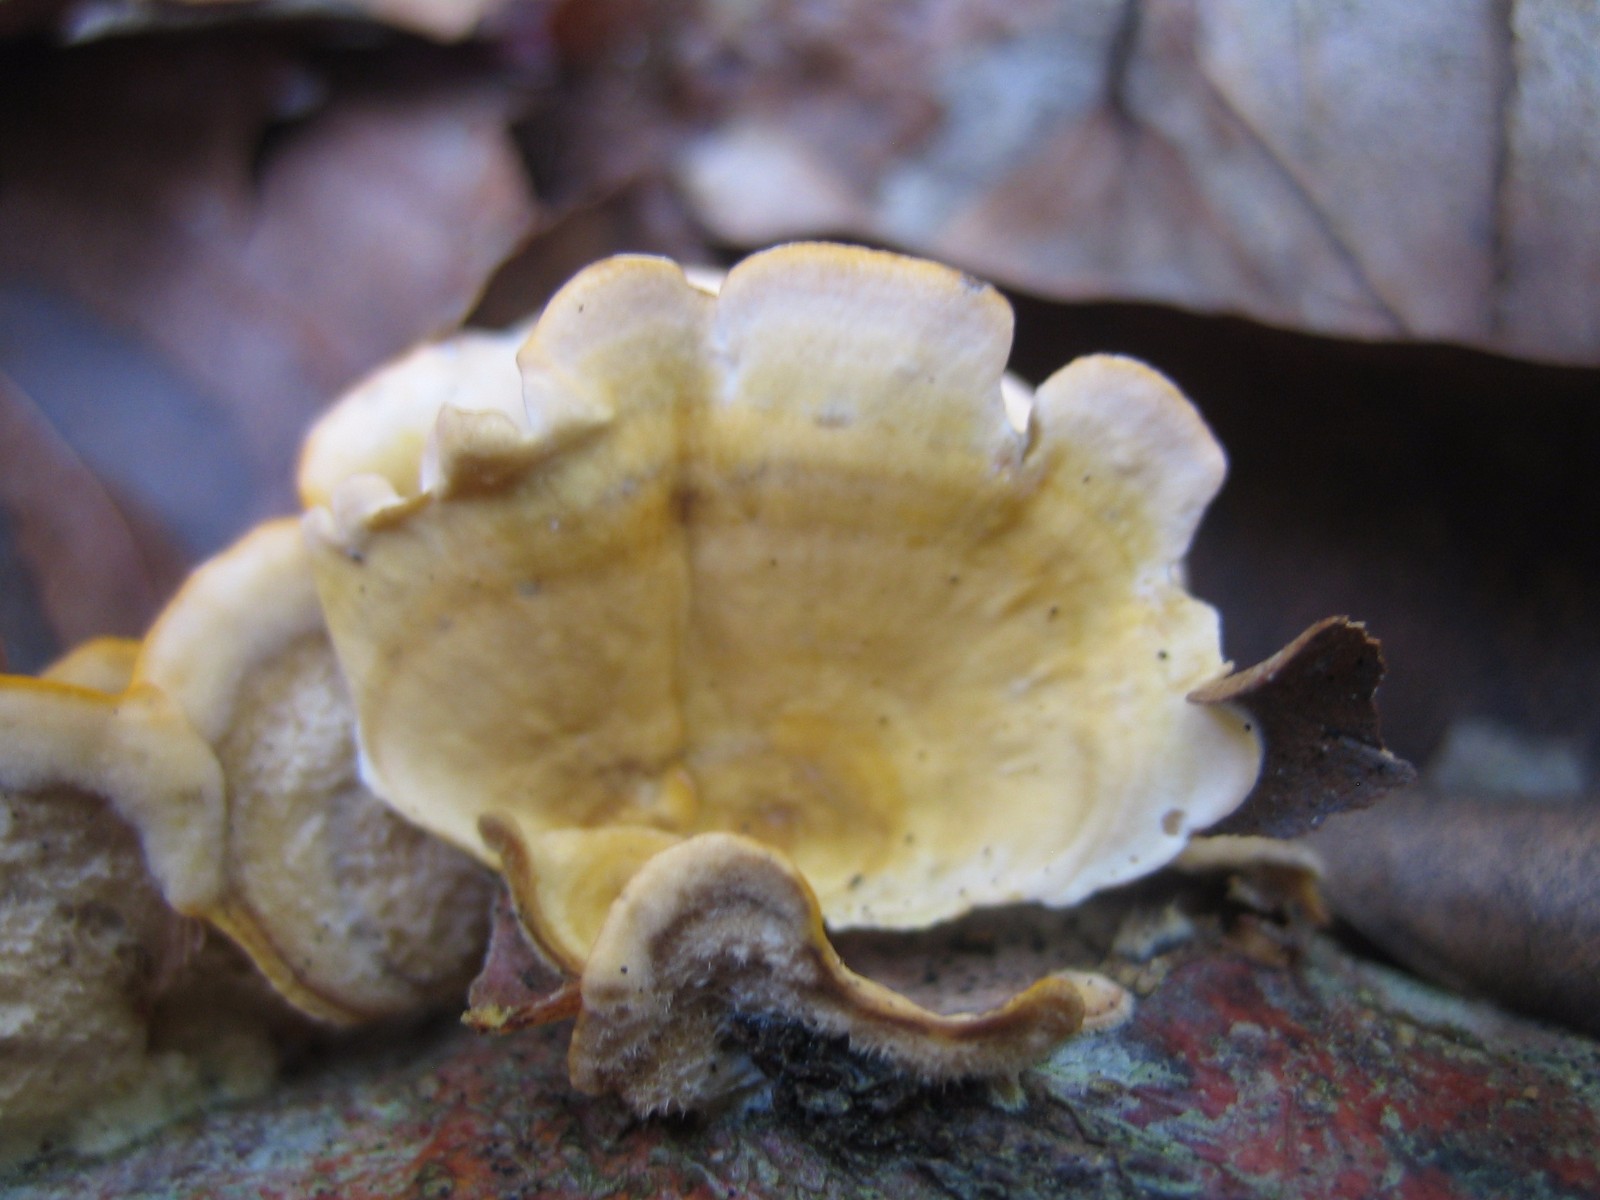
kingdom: Fungi
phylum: Basidiomycota
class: Agaricomycetes
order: Russulales
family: Stereaceae
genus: Stereum
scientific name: Stereum hirsutum
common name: håret lædersvamp
